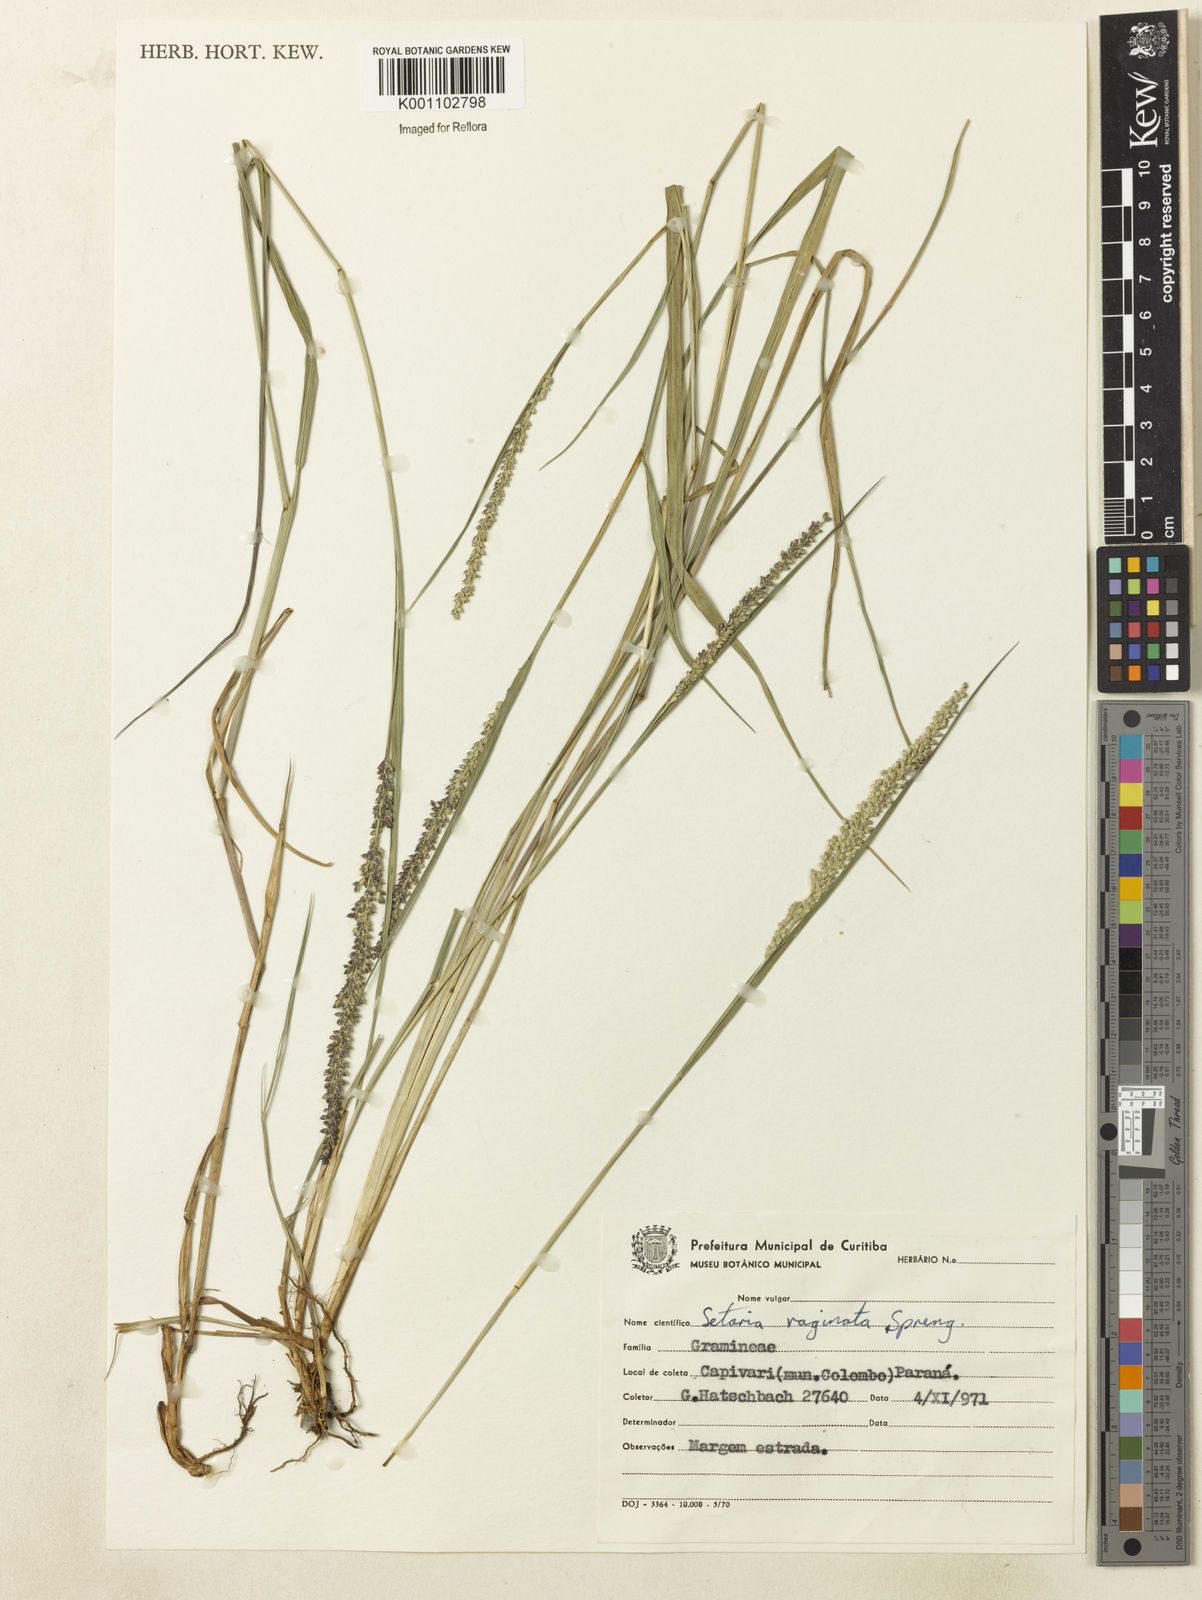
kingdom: Plantae
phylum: Tracheophyta
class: Liliopsida
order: Poales
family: Poaceae
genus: Setaria
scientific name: Setaria setosa
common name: West indies bristle grass
